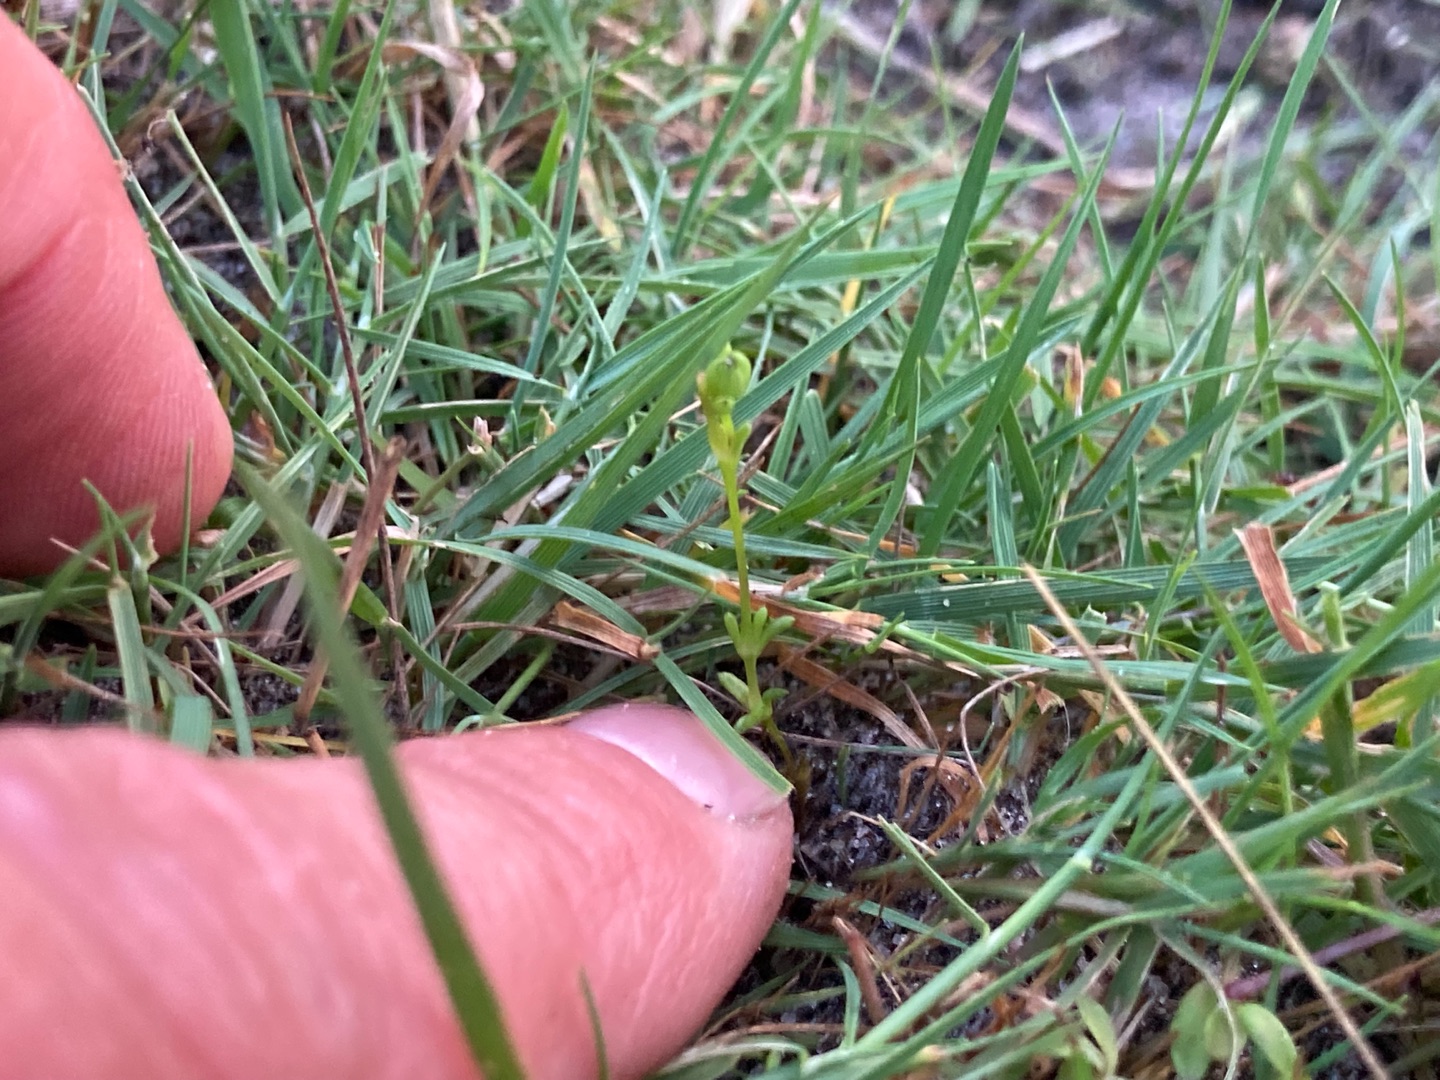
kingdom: Plantae
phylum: Tracheophyta
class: Magnoliopsida
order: Caryophyllales
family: Caryophyllaceae
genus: Sagina
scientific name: Sagina maritima
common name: Strand-firling
